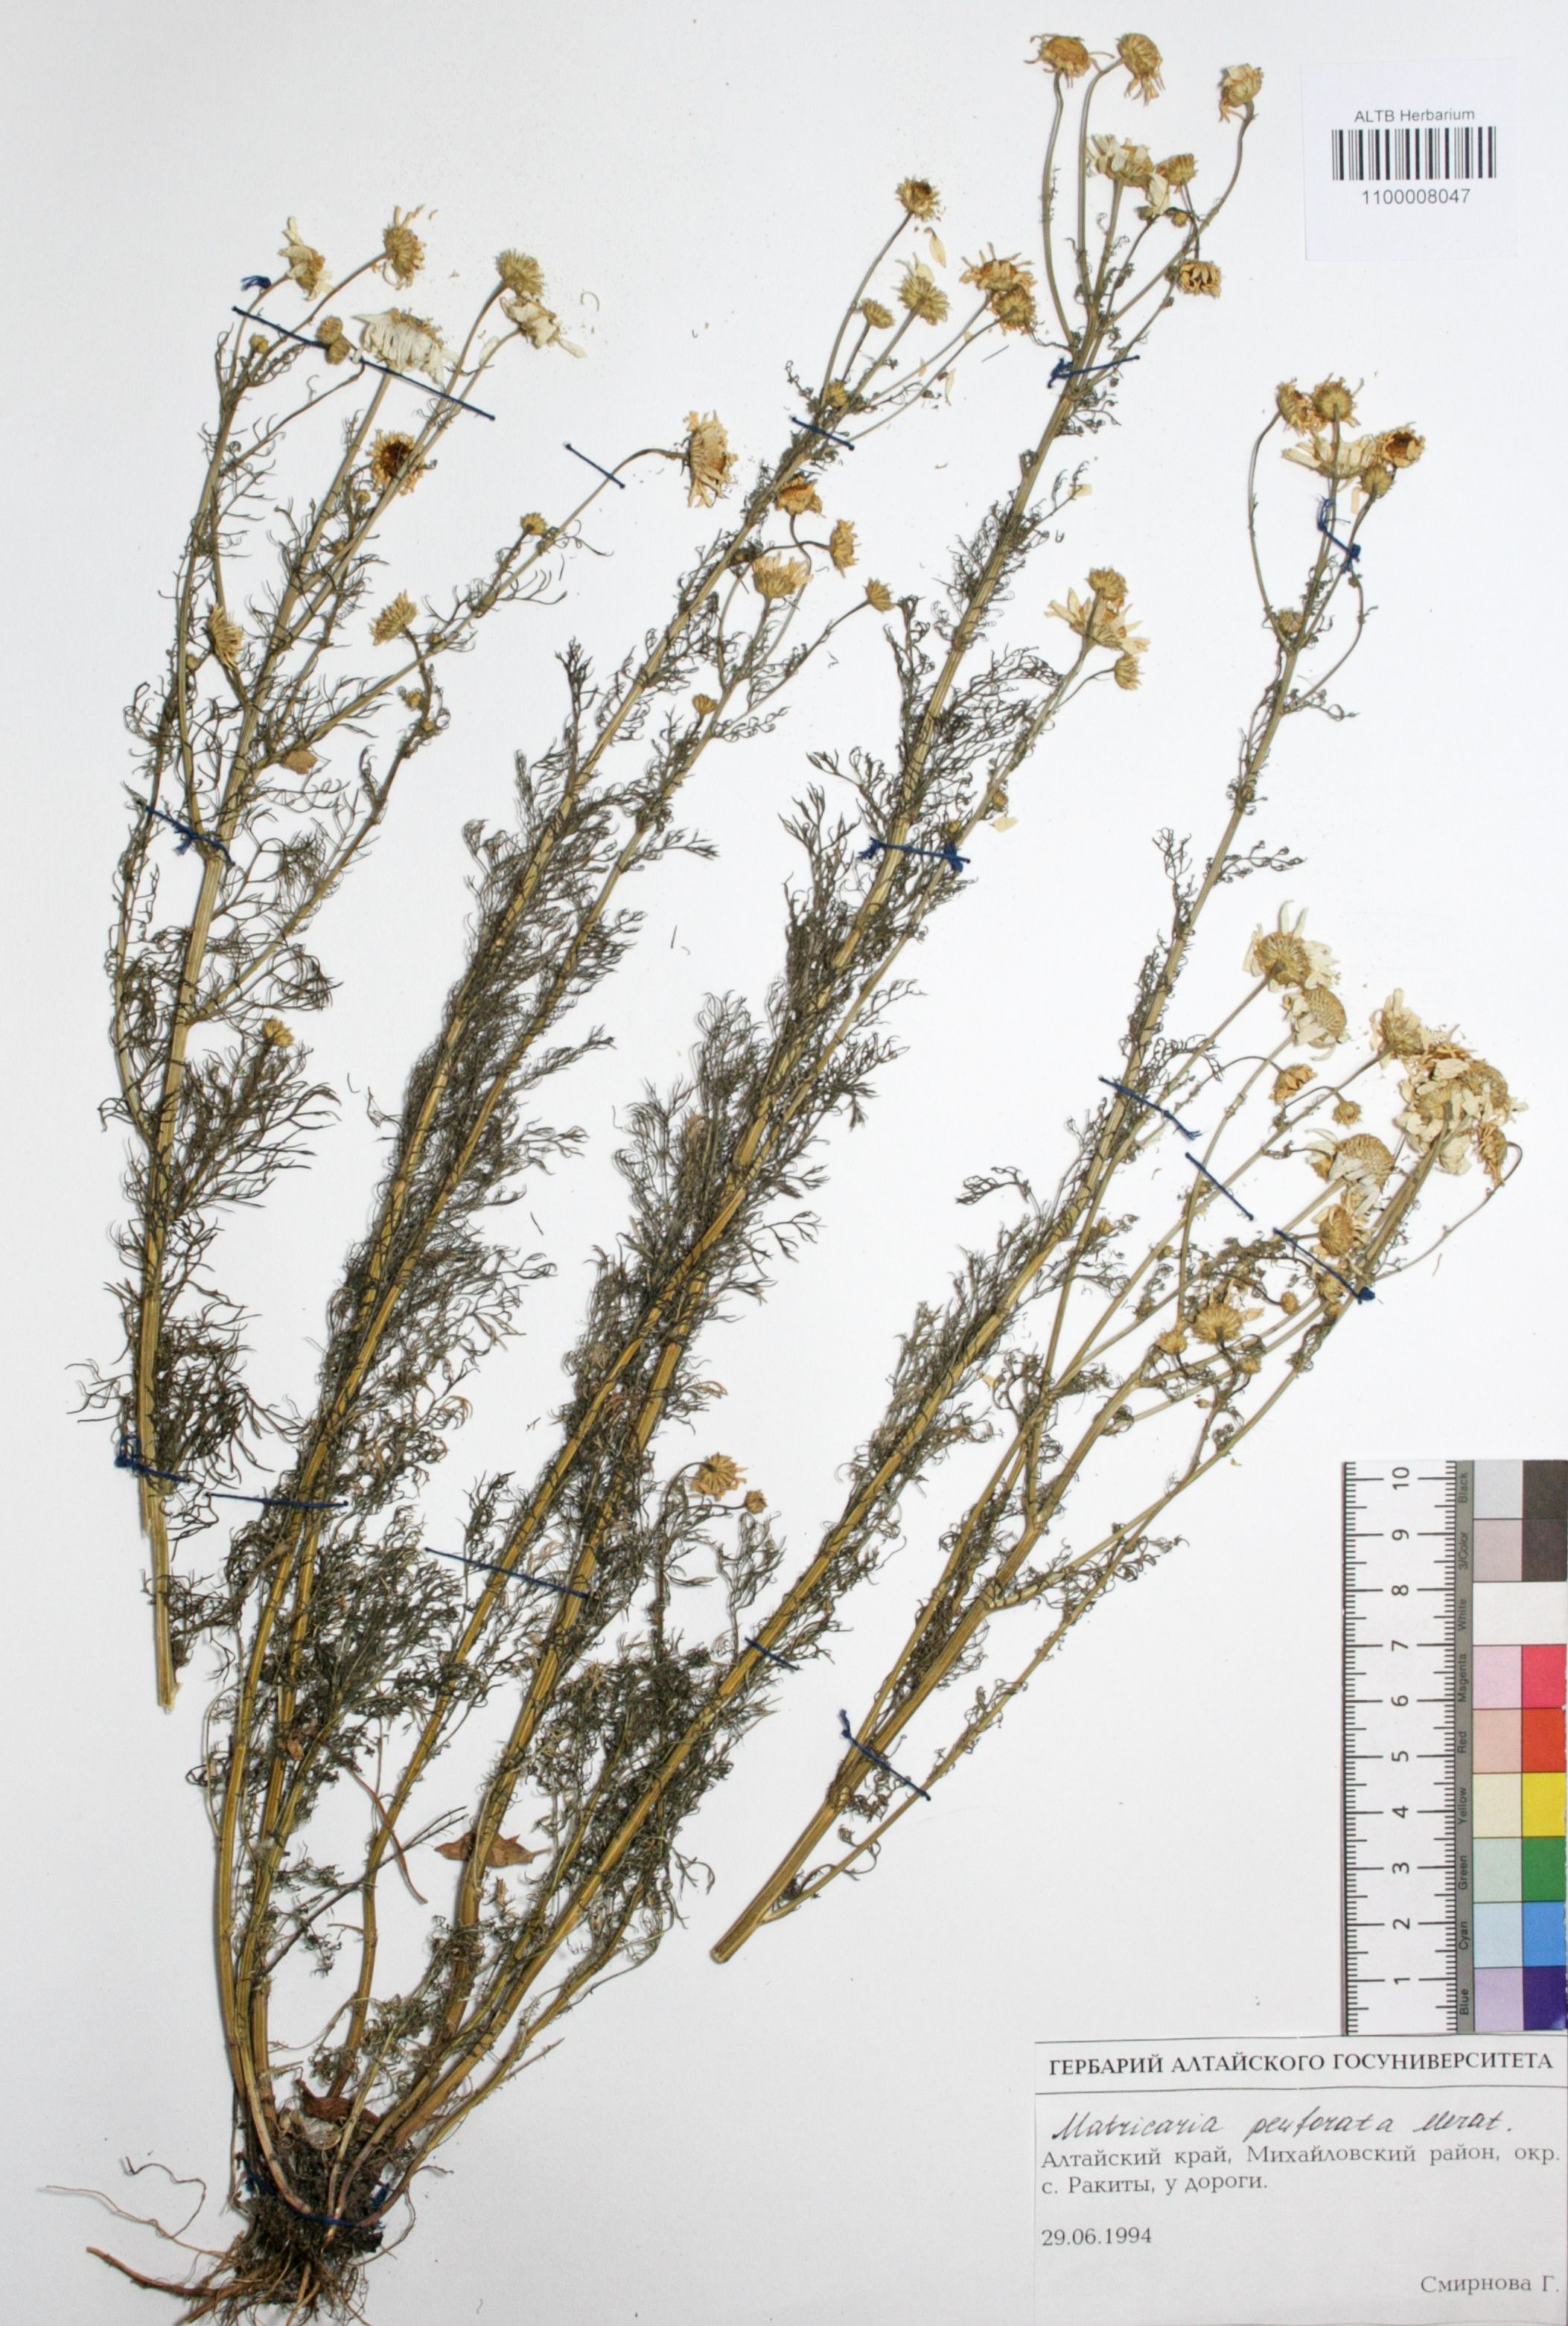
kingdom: Plantae
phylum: Tracheophyta
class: Magnoliopsida
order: Asterales
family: Asteraceae
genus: Tripleurospermum
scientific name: Tripleurospermum inodorum
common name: Scentless mayweed
